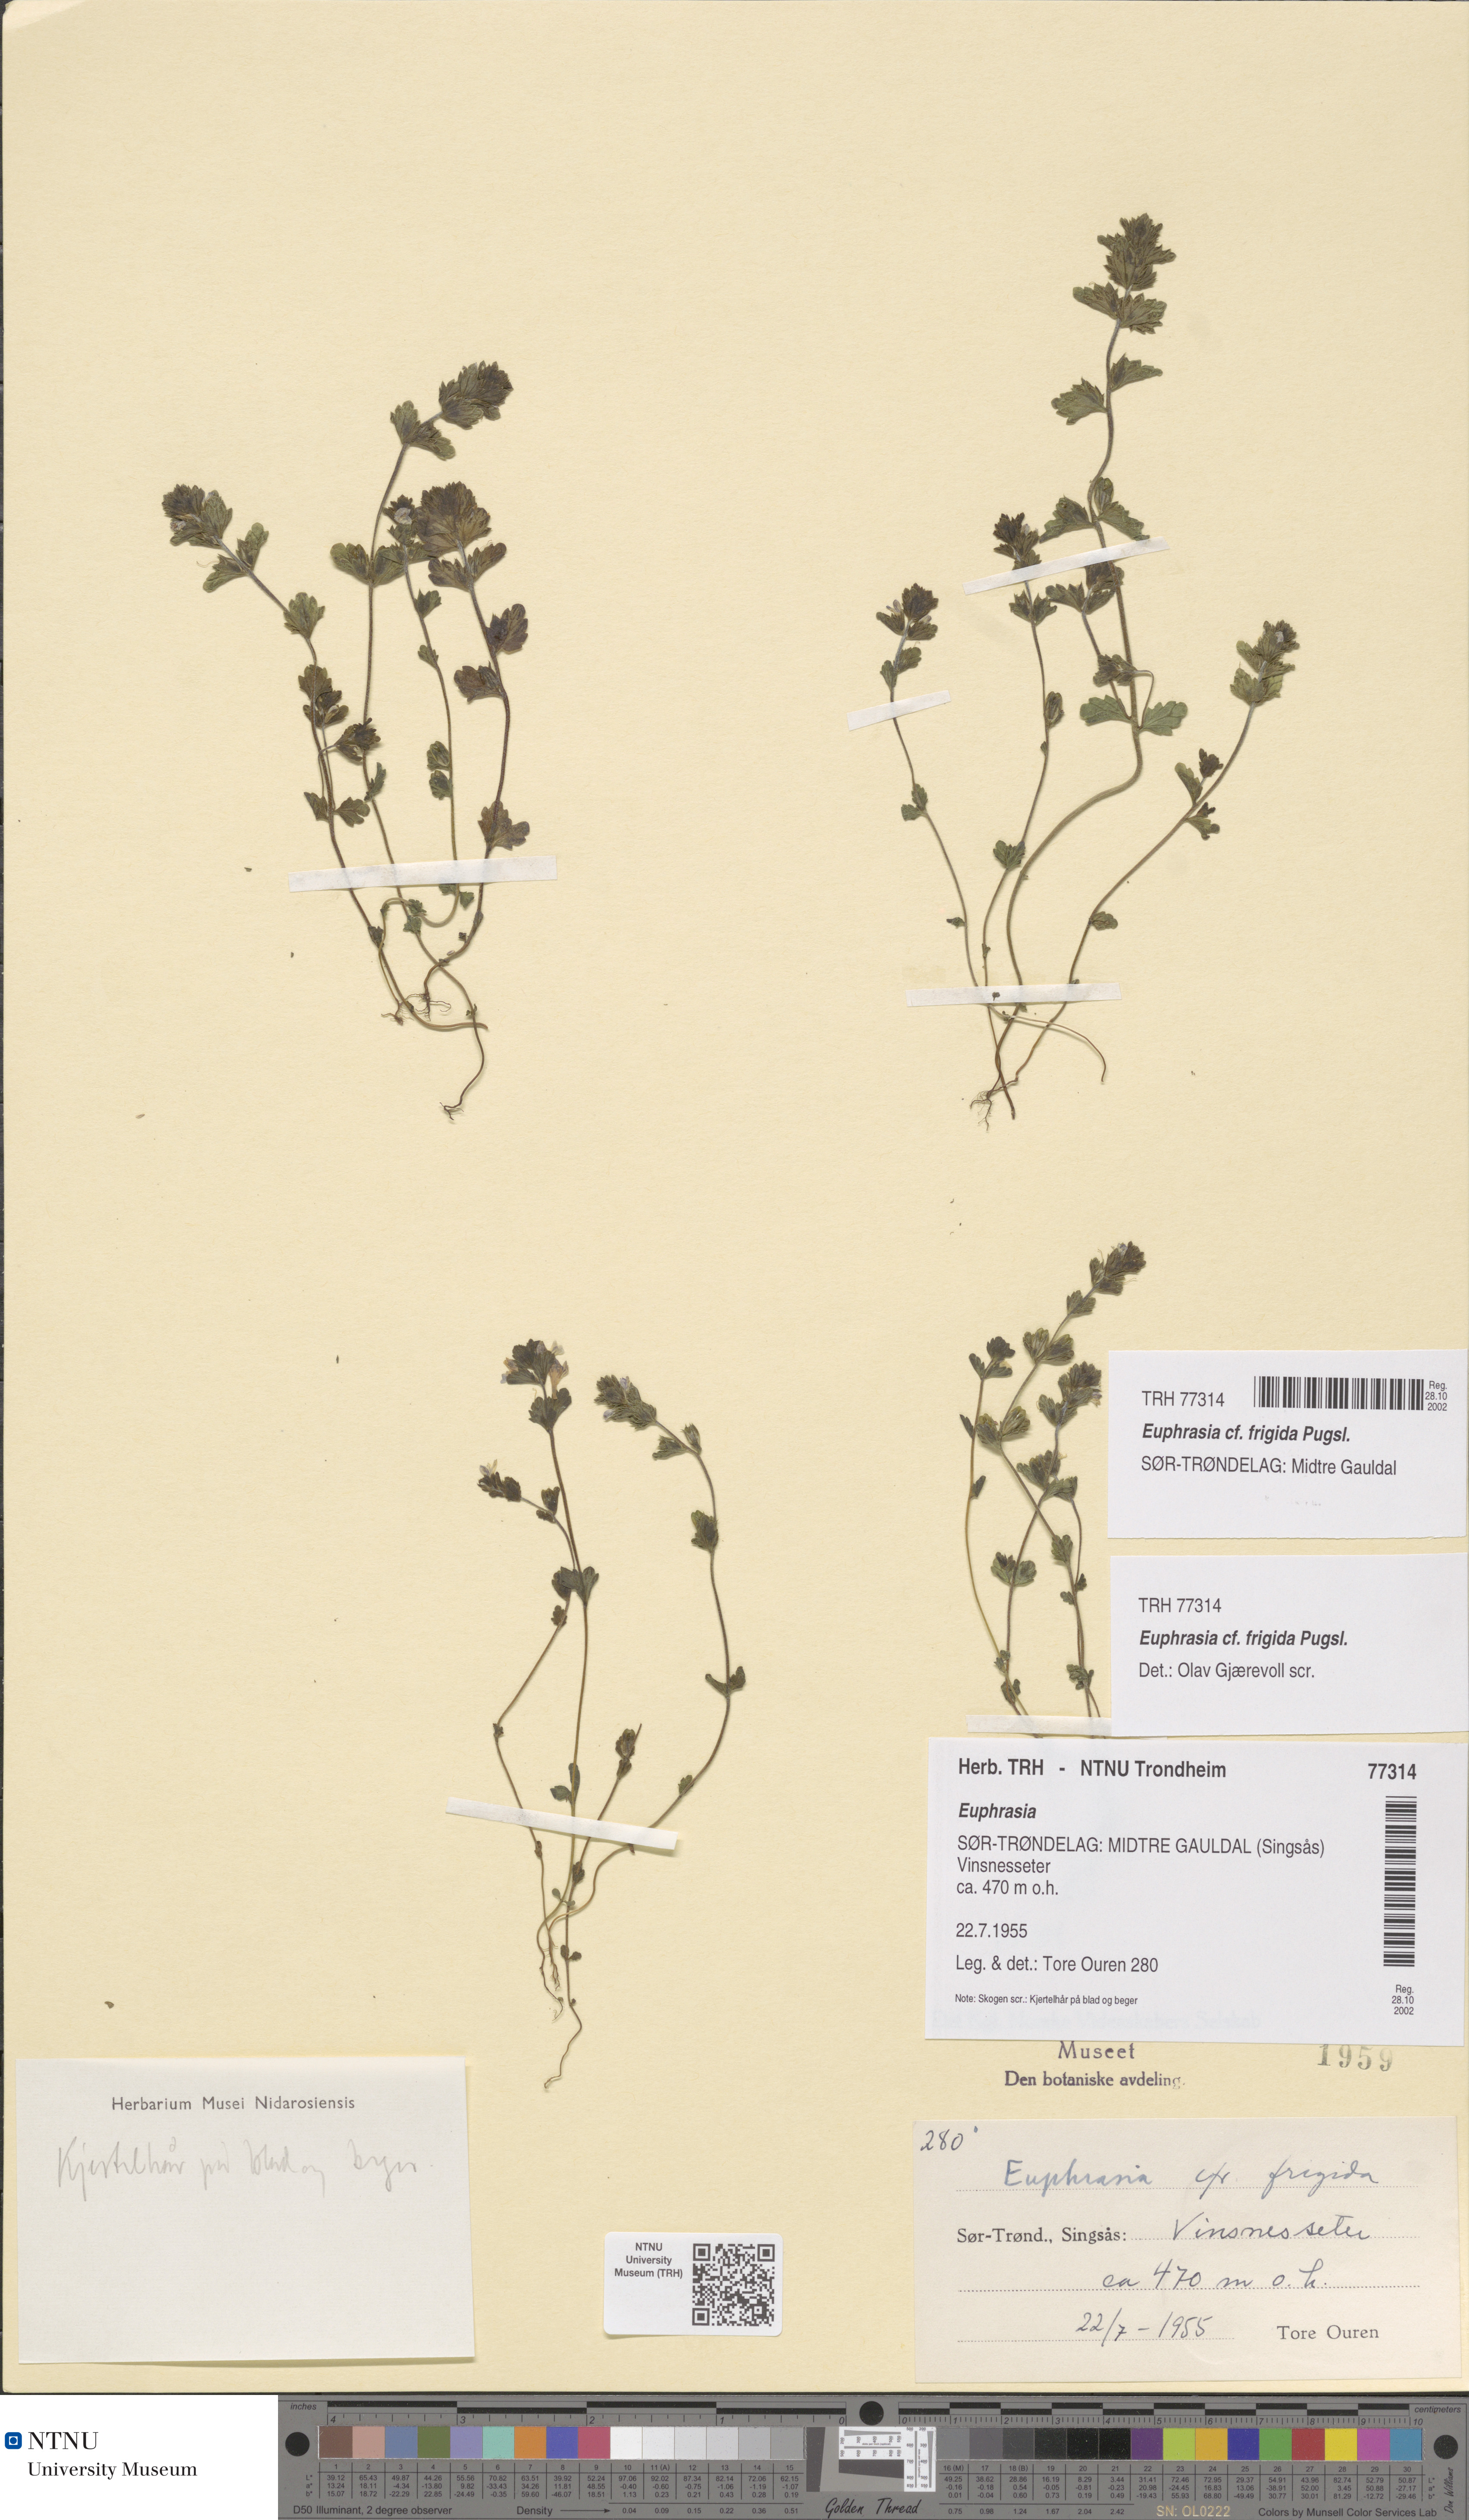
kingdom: Plantae
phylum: Tracheophyta
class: Magnoliopsida
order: Lamiales
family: Orobanchaceae
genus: Euphrasia
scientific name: Euphrasia wettsteinii
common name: Wettstein's eyebright
